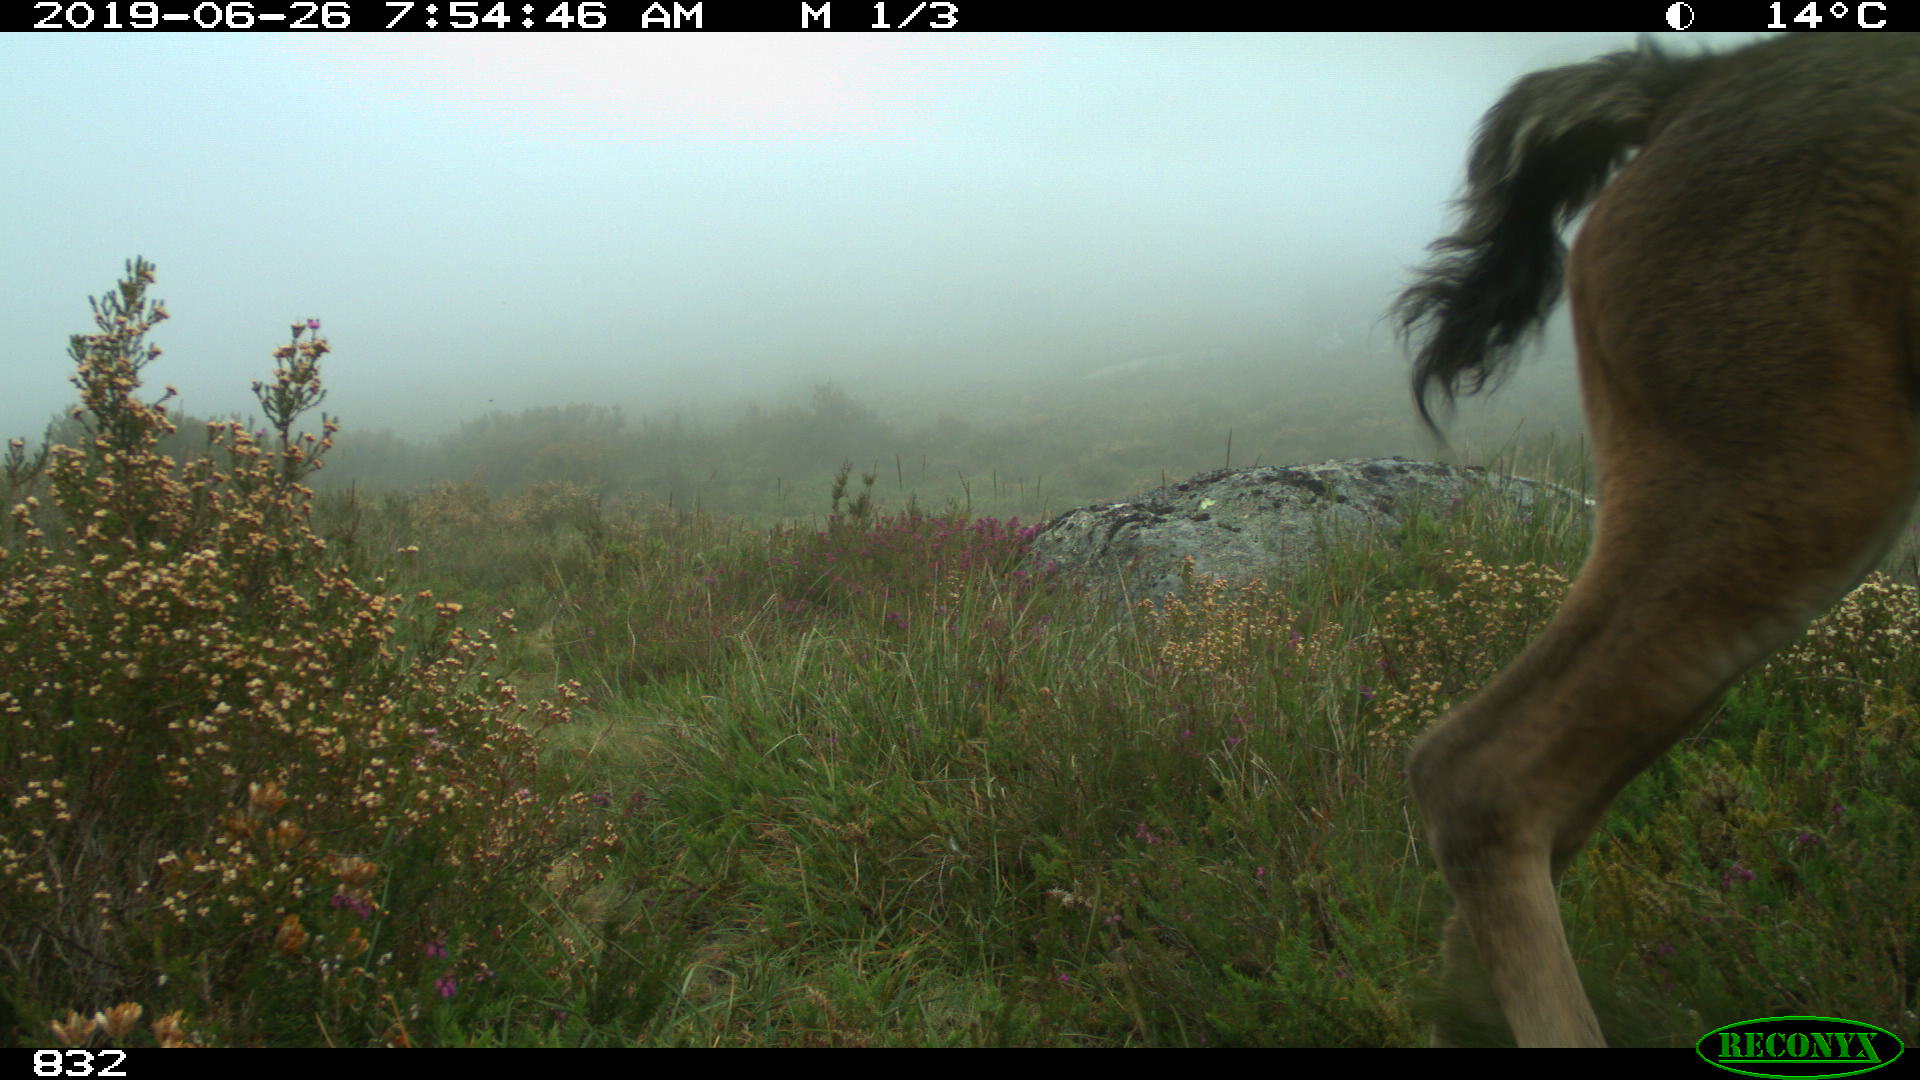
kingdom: Animalia
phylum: Chordata
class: Mammalia
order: Perissodactyla
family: Equidae
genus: Equus
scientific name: Equus caballus
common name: Horse
